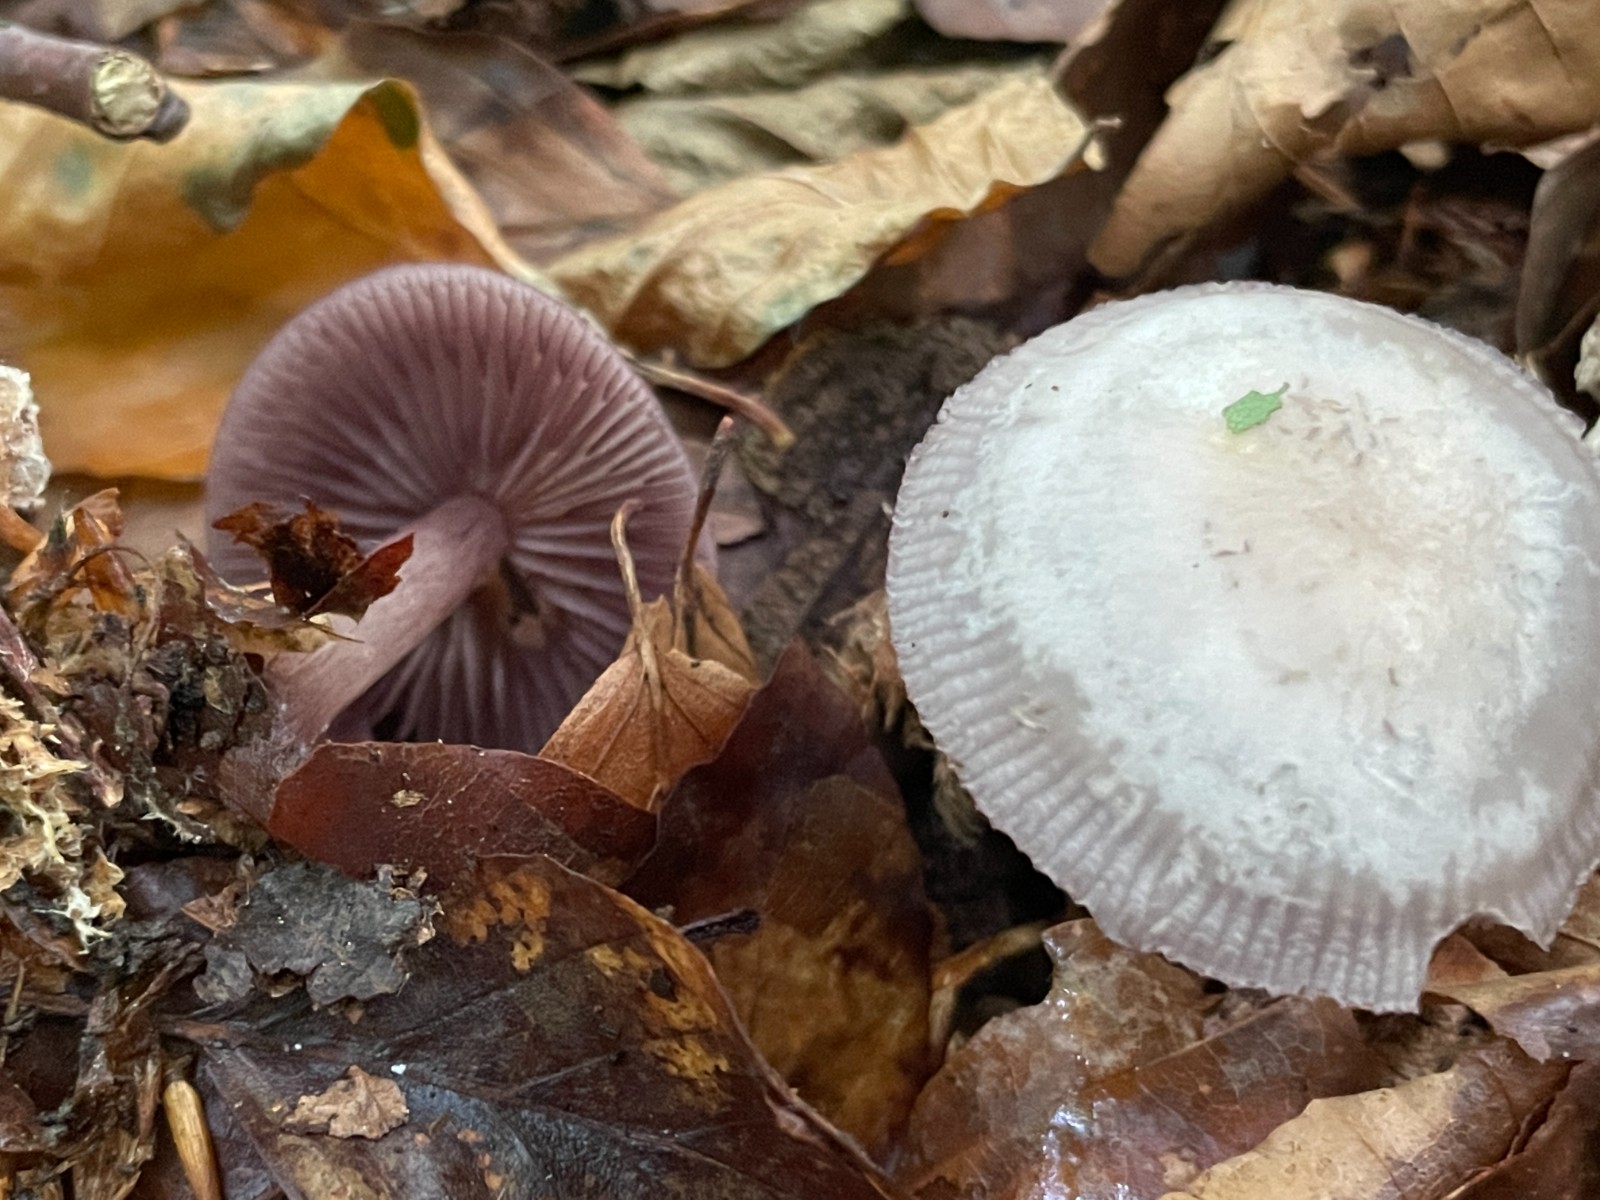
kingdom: Fungi
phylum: Basidiomycota
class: Agaricomycetes
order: Agaricales
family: Mycenaceae
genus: Mycena
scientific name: Mycena pelianthina
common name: mørkbladet huesvamp
